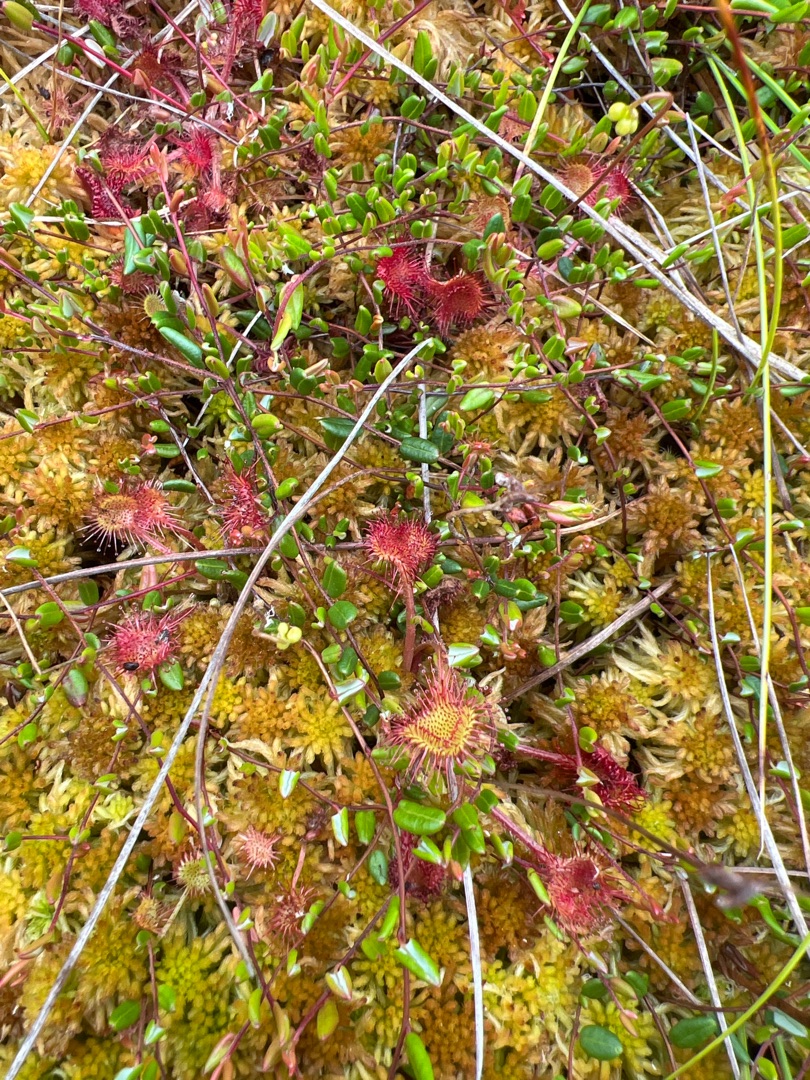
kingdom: Plantae
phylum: Tracheophyta
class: Magnoliopsida
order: Caryophyllales
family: Droseraceae
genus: Drosera
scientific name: Drosera rotundifolia
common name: Rundbladet soldug
